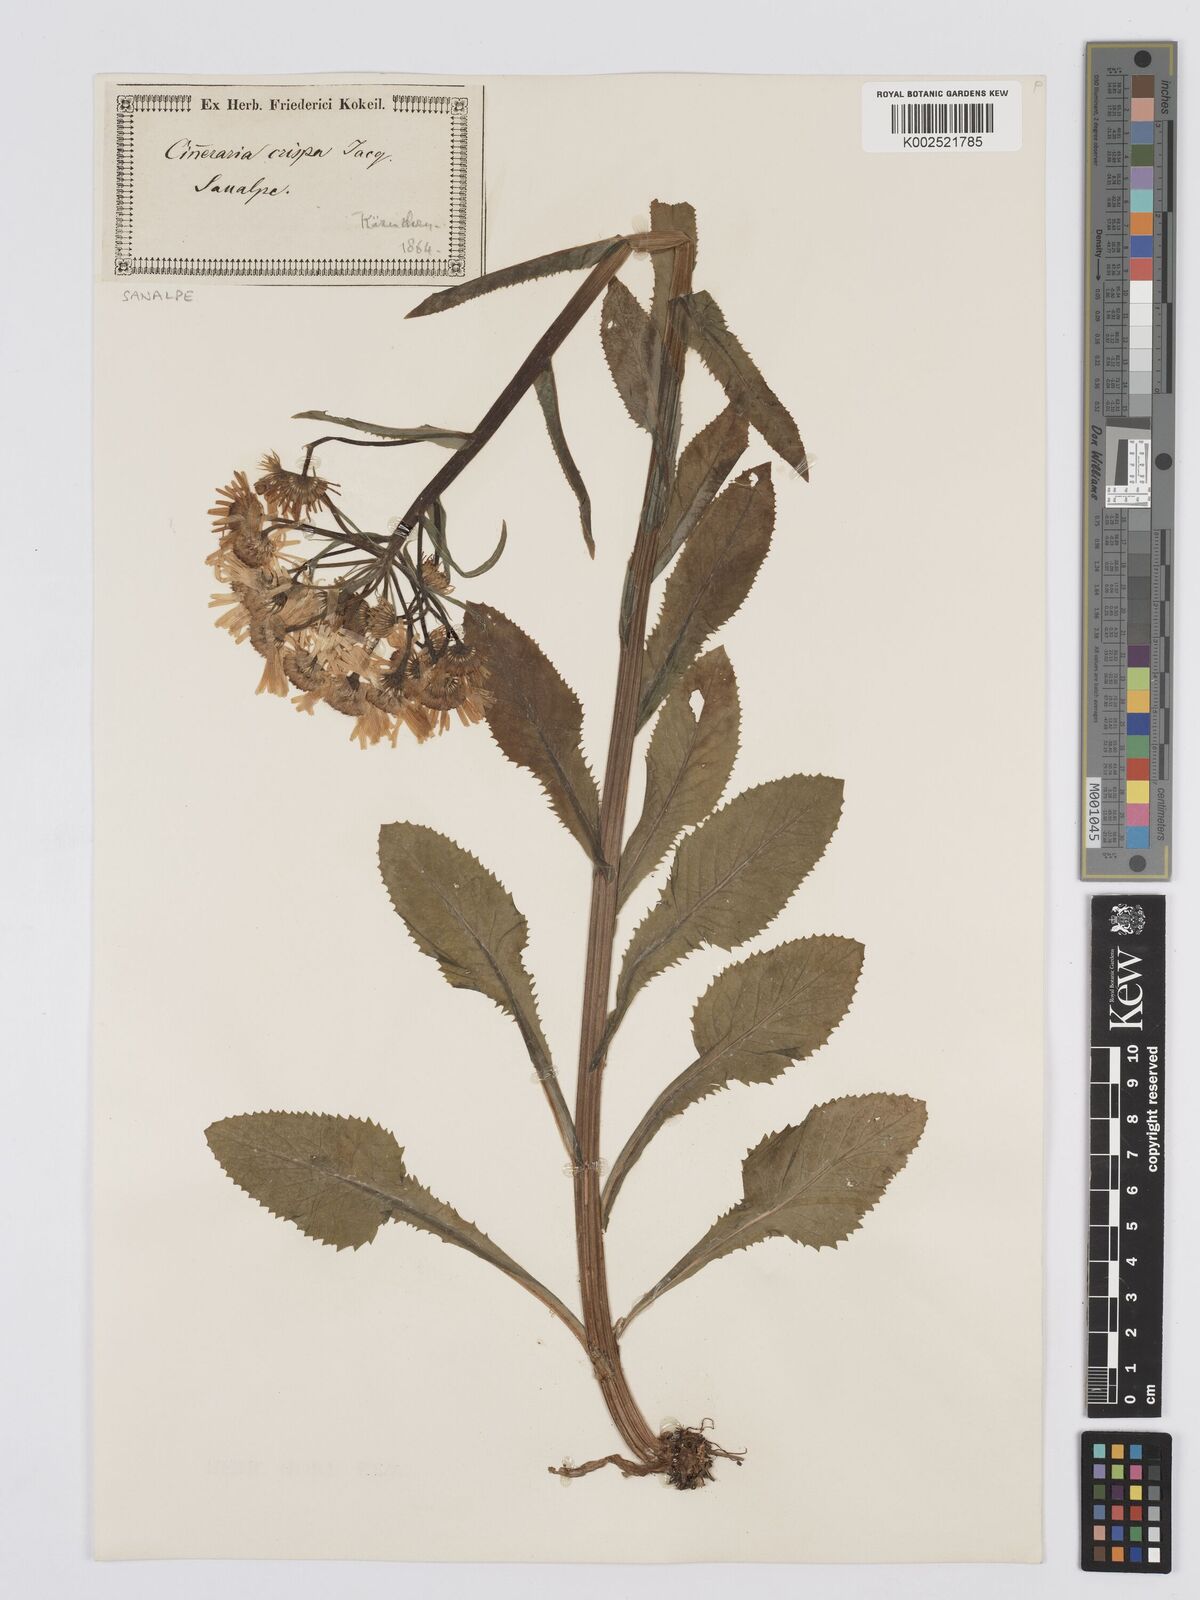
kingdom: Plantae
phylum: Tracheophyta
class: Magnoliopsida
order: Asterales
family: Asteraceae
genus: Tephroseris
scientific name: Tephroseris crispa
